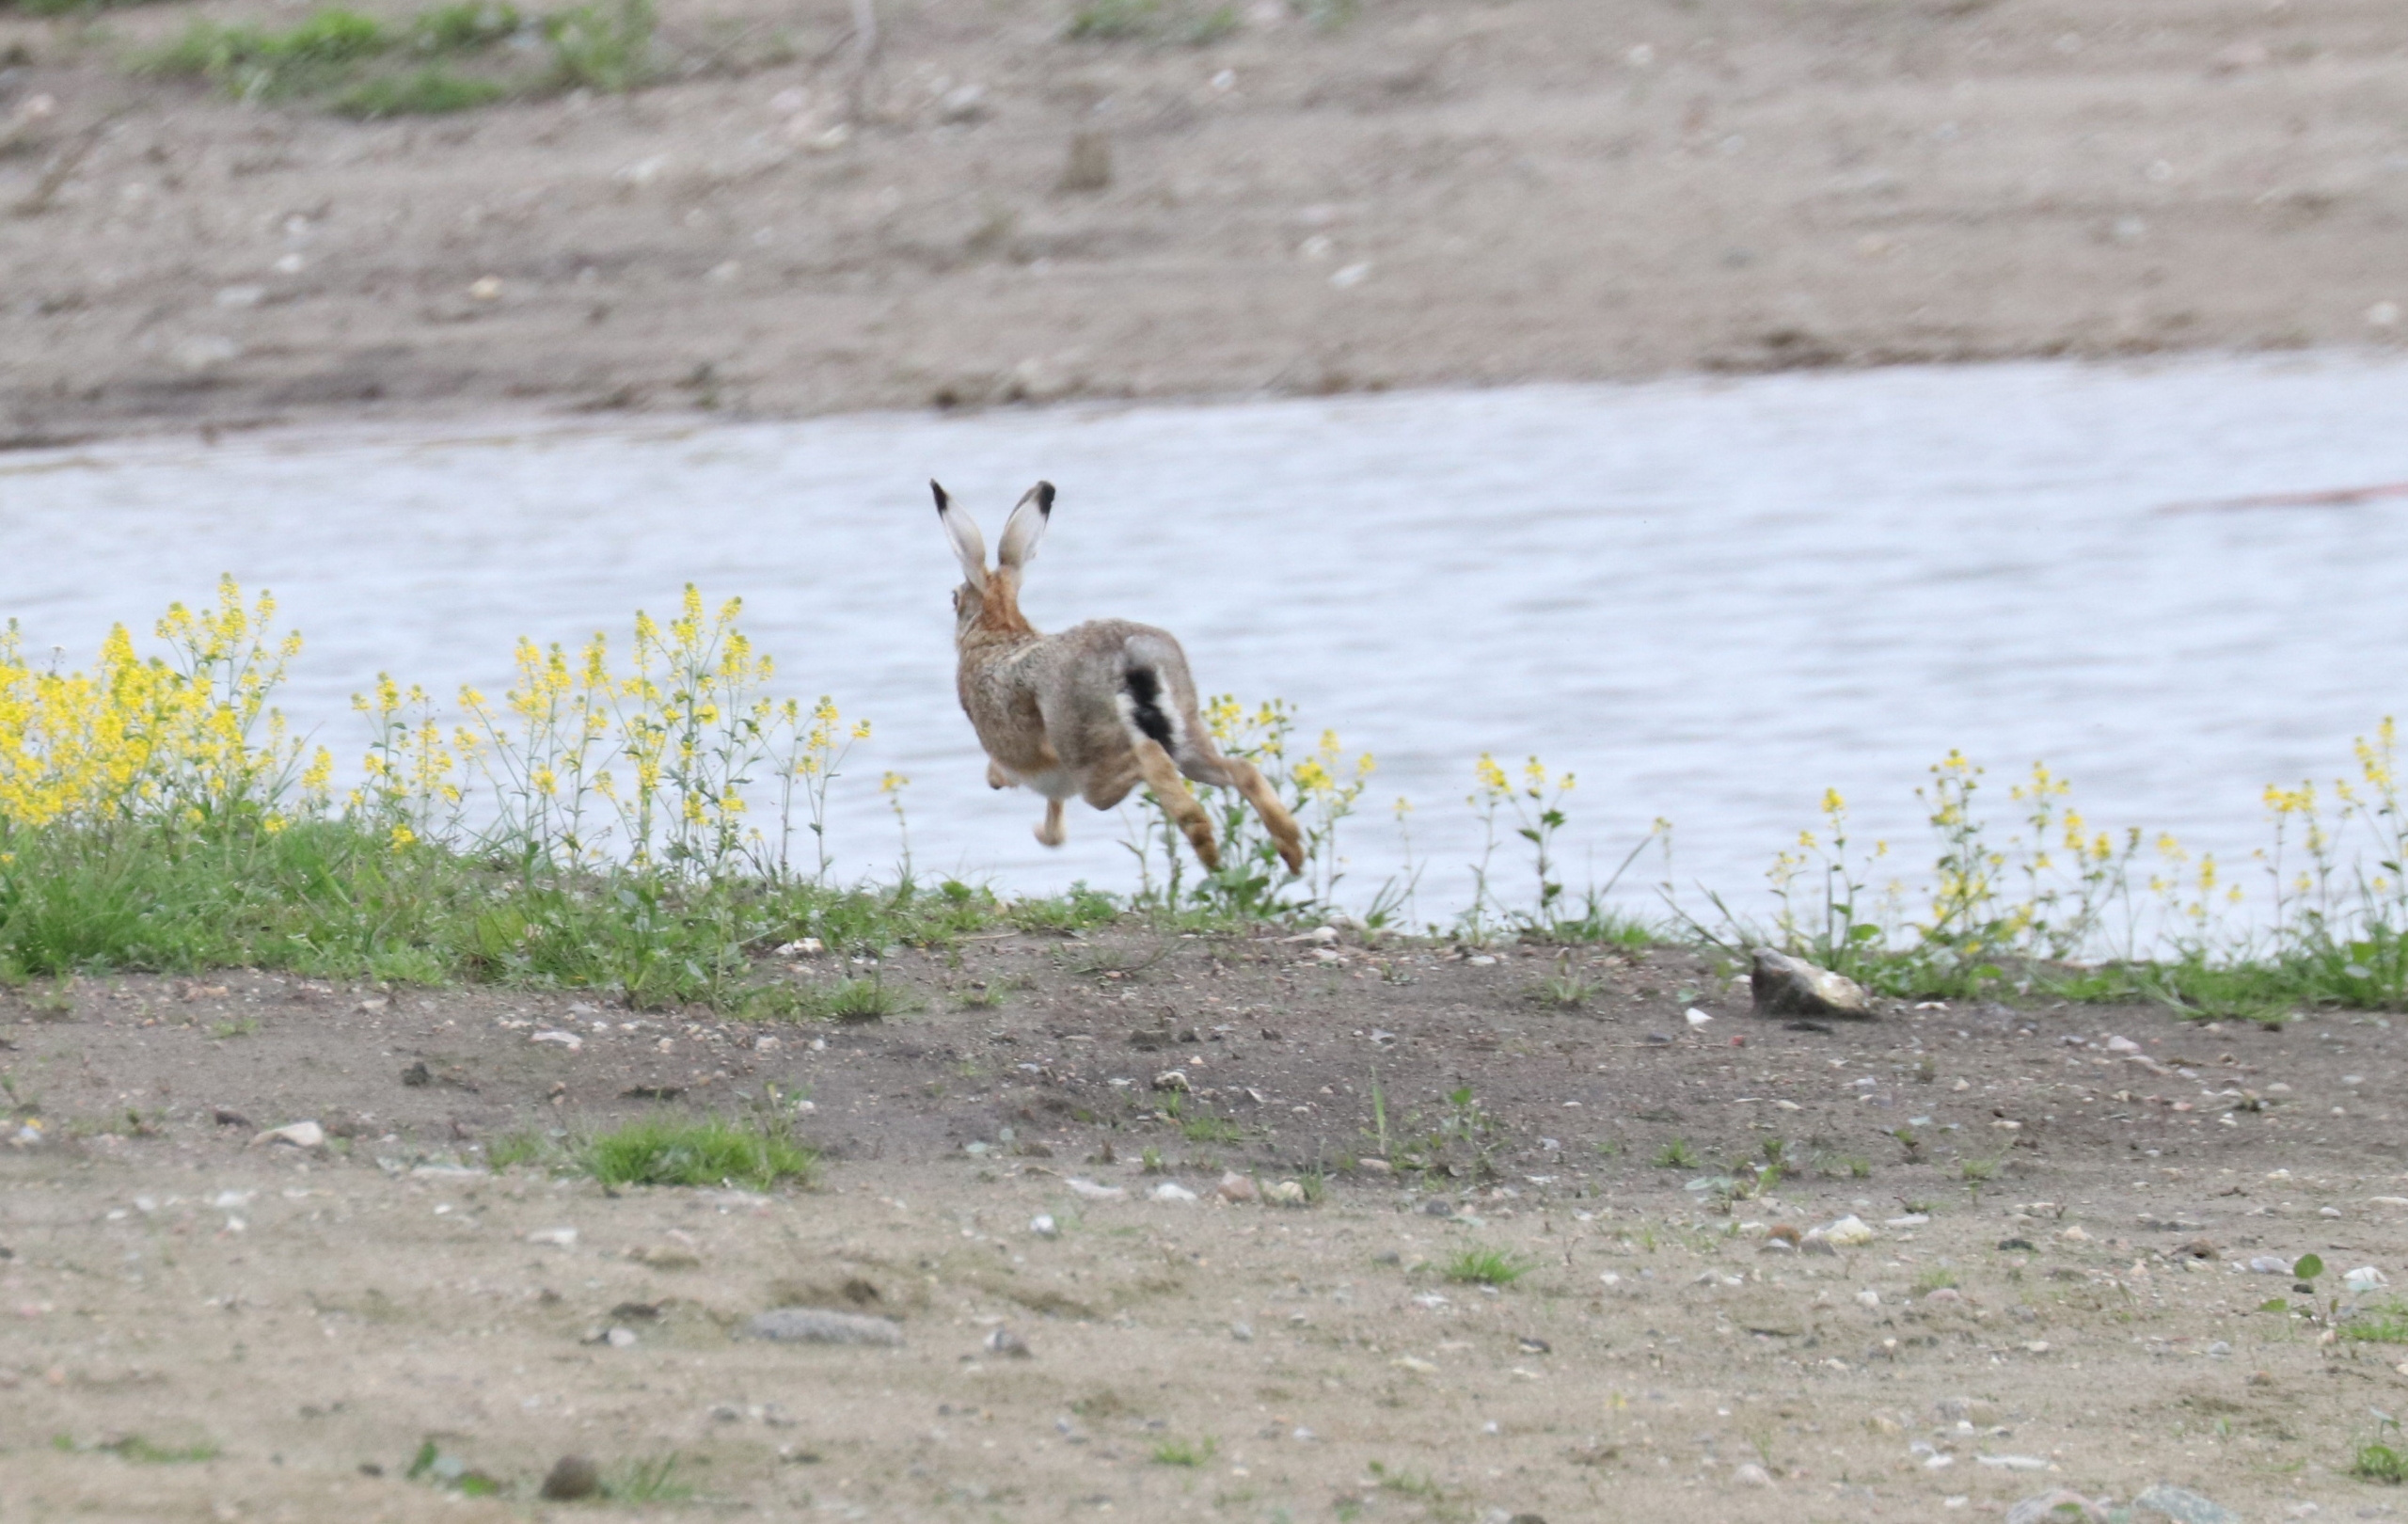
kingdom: Animalia
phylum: Chordata
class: Mammalia
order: Lagomorpha
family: Leporidae
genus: Lepus
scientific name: Lepus europaeus
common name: Hare
